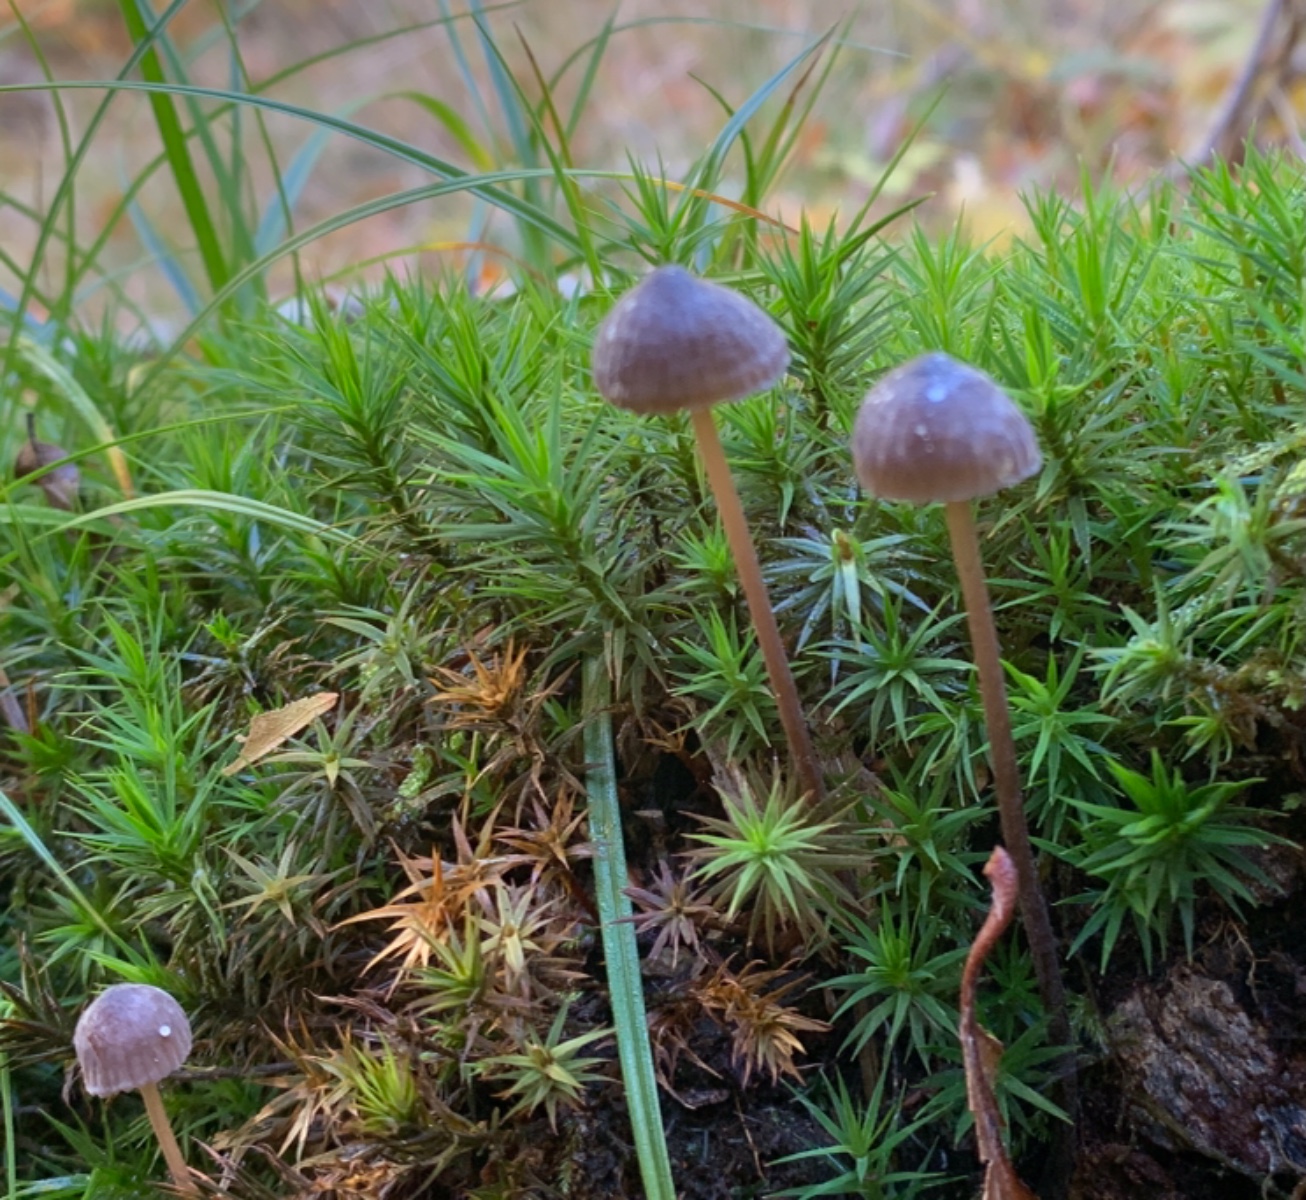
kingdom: Fungi
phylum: Basidiomycota
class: Agaricomycetes
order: Agaricales
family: Mycenaceae
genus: Mycena
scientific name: Mycena galopus
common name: hvidmælket huesvamp
